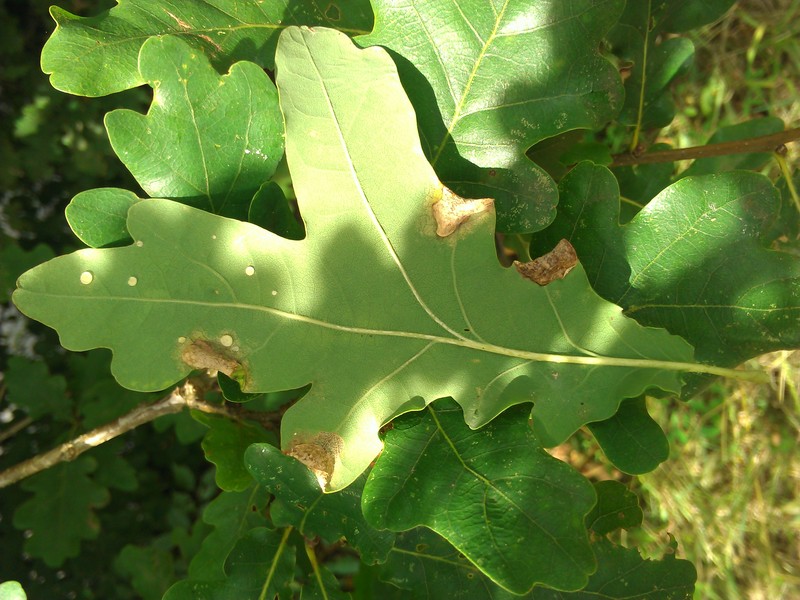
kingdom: Animalia
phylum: Arthropoda
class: Insecta
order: Diptera
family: Cecidomyiidae
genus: Macrodiplosis
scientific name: Macrodiplosis pustularis
